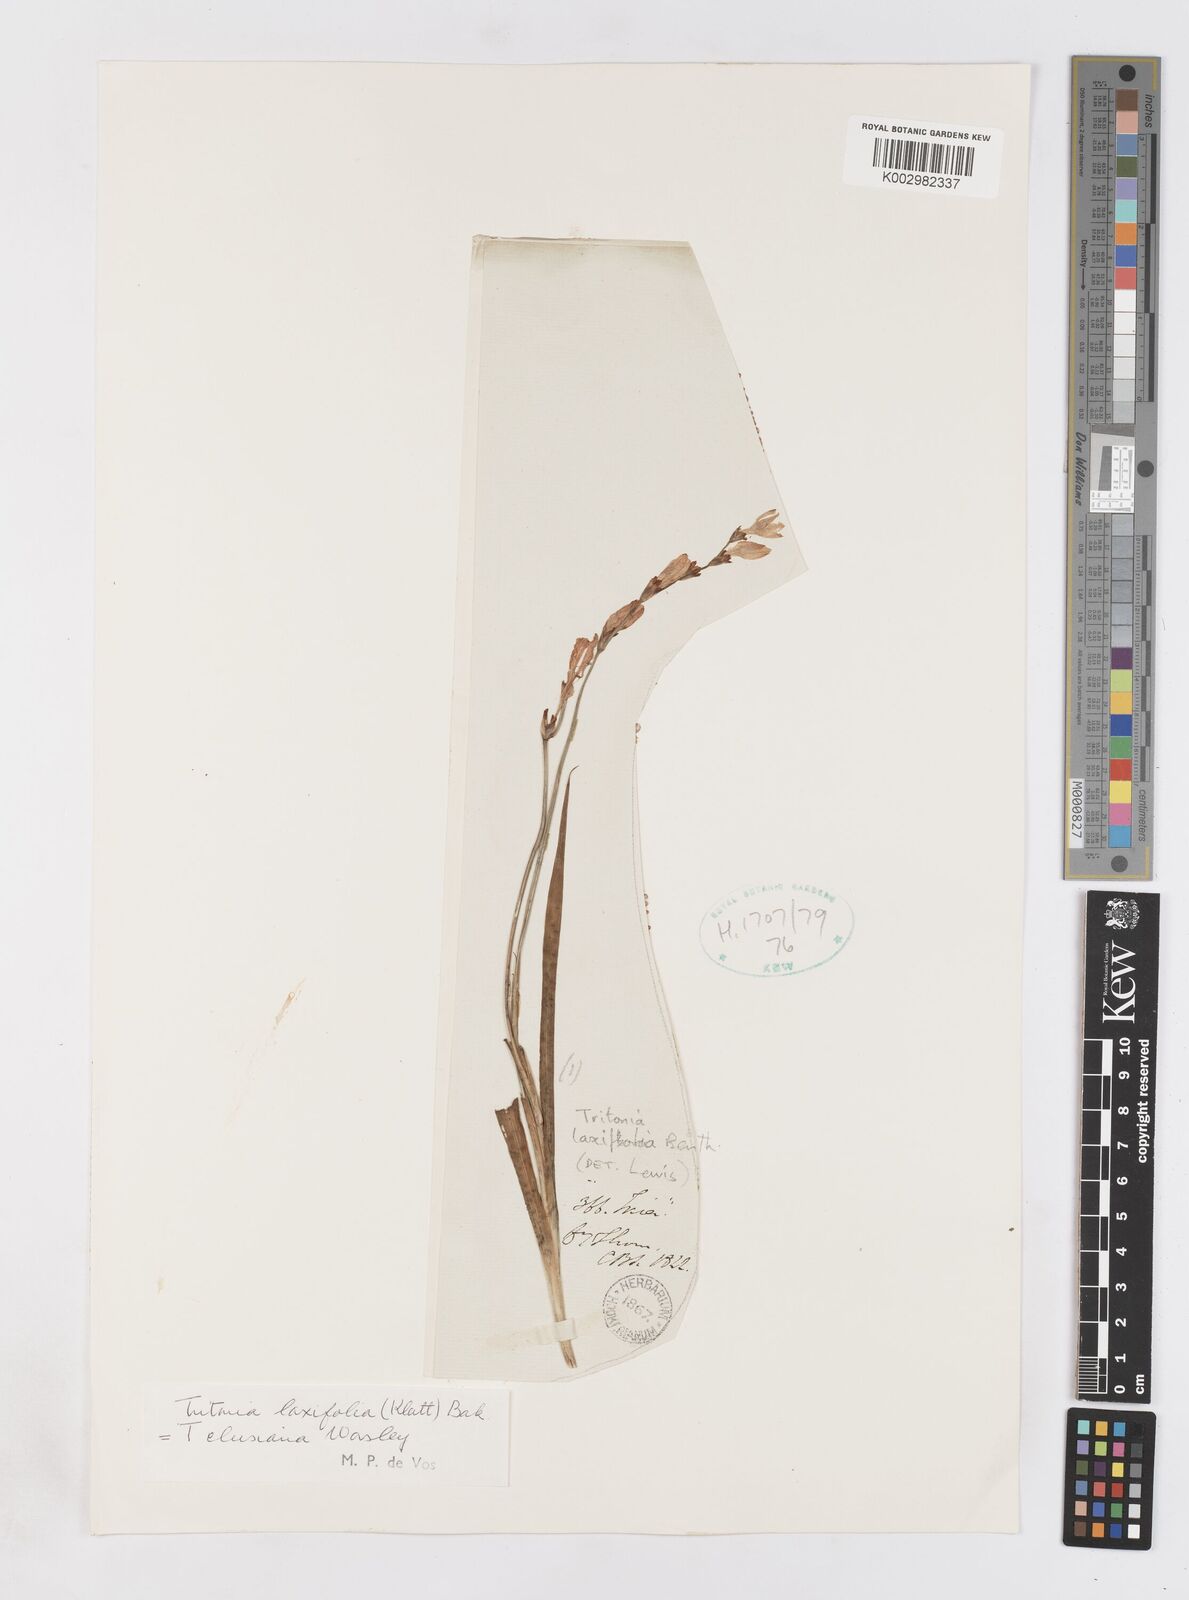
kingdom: Plantae
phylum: Tracheophyta
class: Liliopsida
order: Asparagales
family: Iridaceae
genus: Tritonia
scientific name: Tritonia laxifolia
